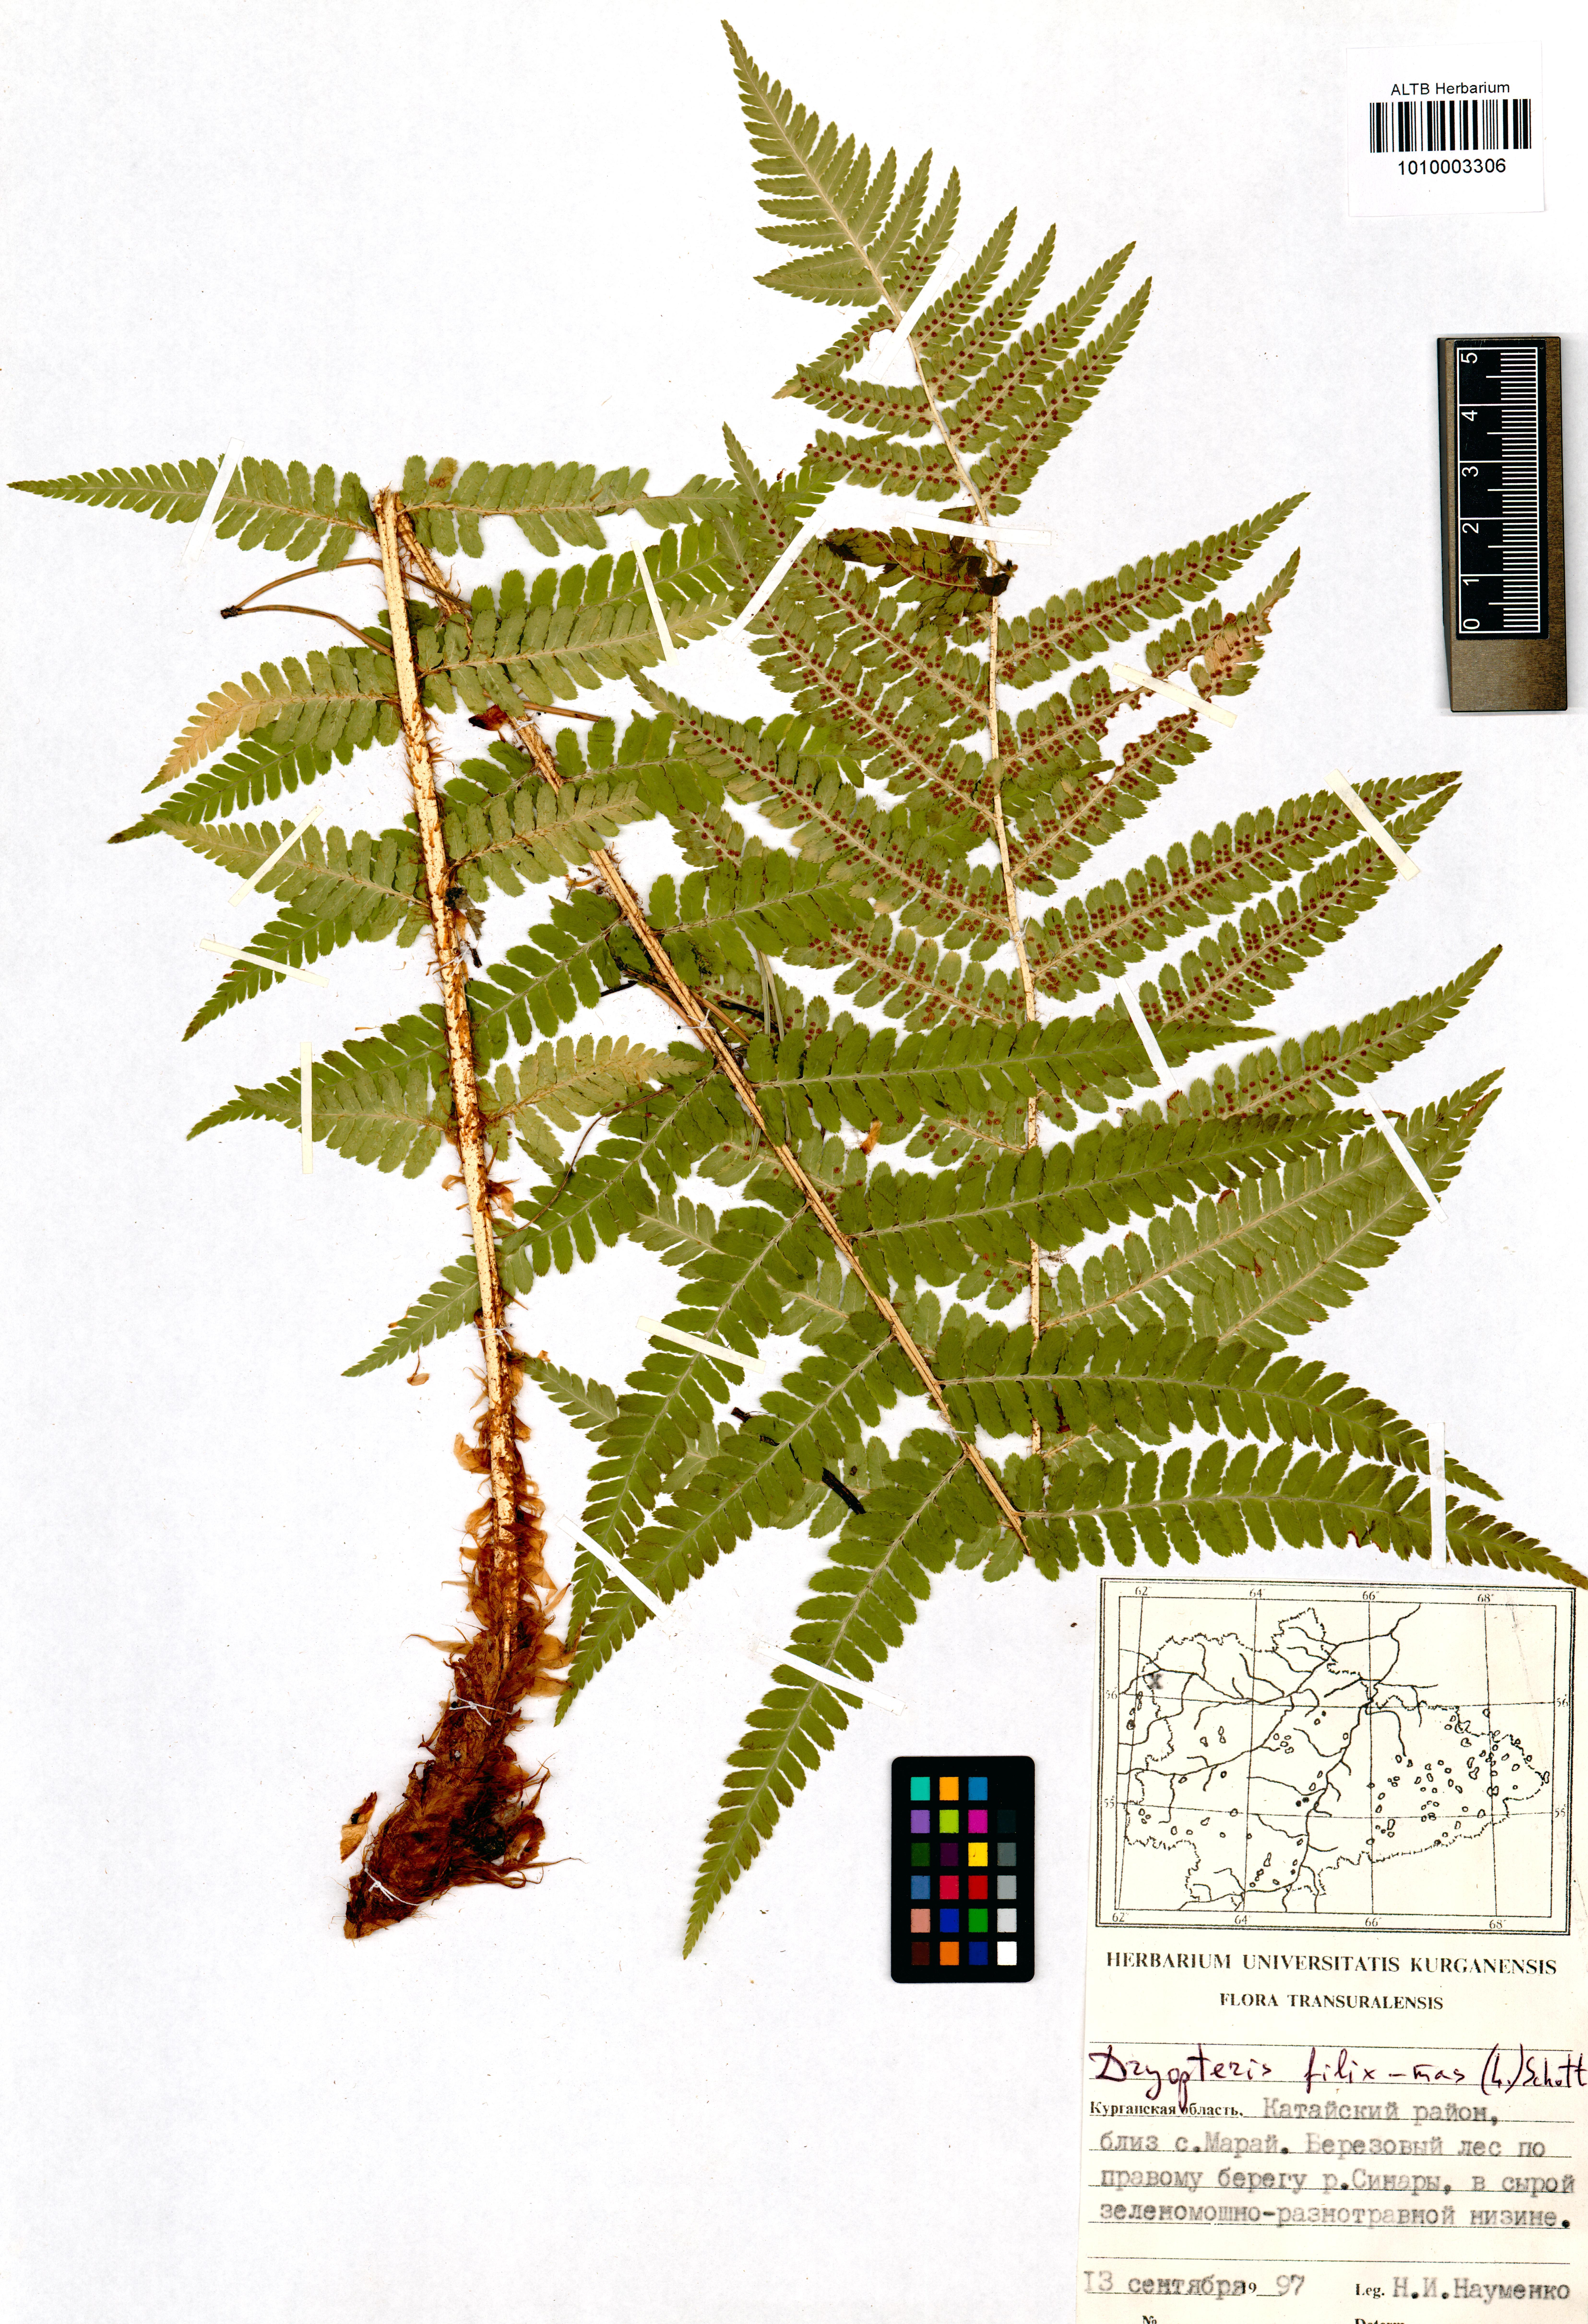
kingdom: Plantae
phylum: Tracheophyta
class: Polypodiopsida
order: Polypodiales
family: Dryopteridaceae
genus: Dryopteris
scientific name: Dryopteris filix-mas
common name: Male fern
